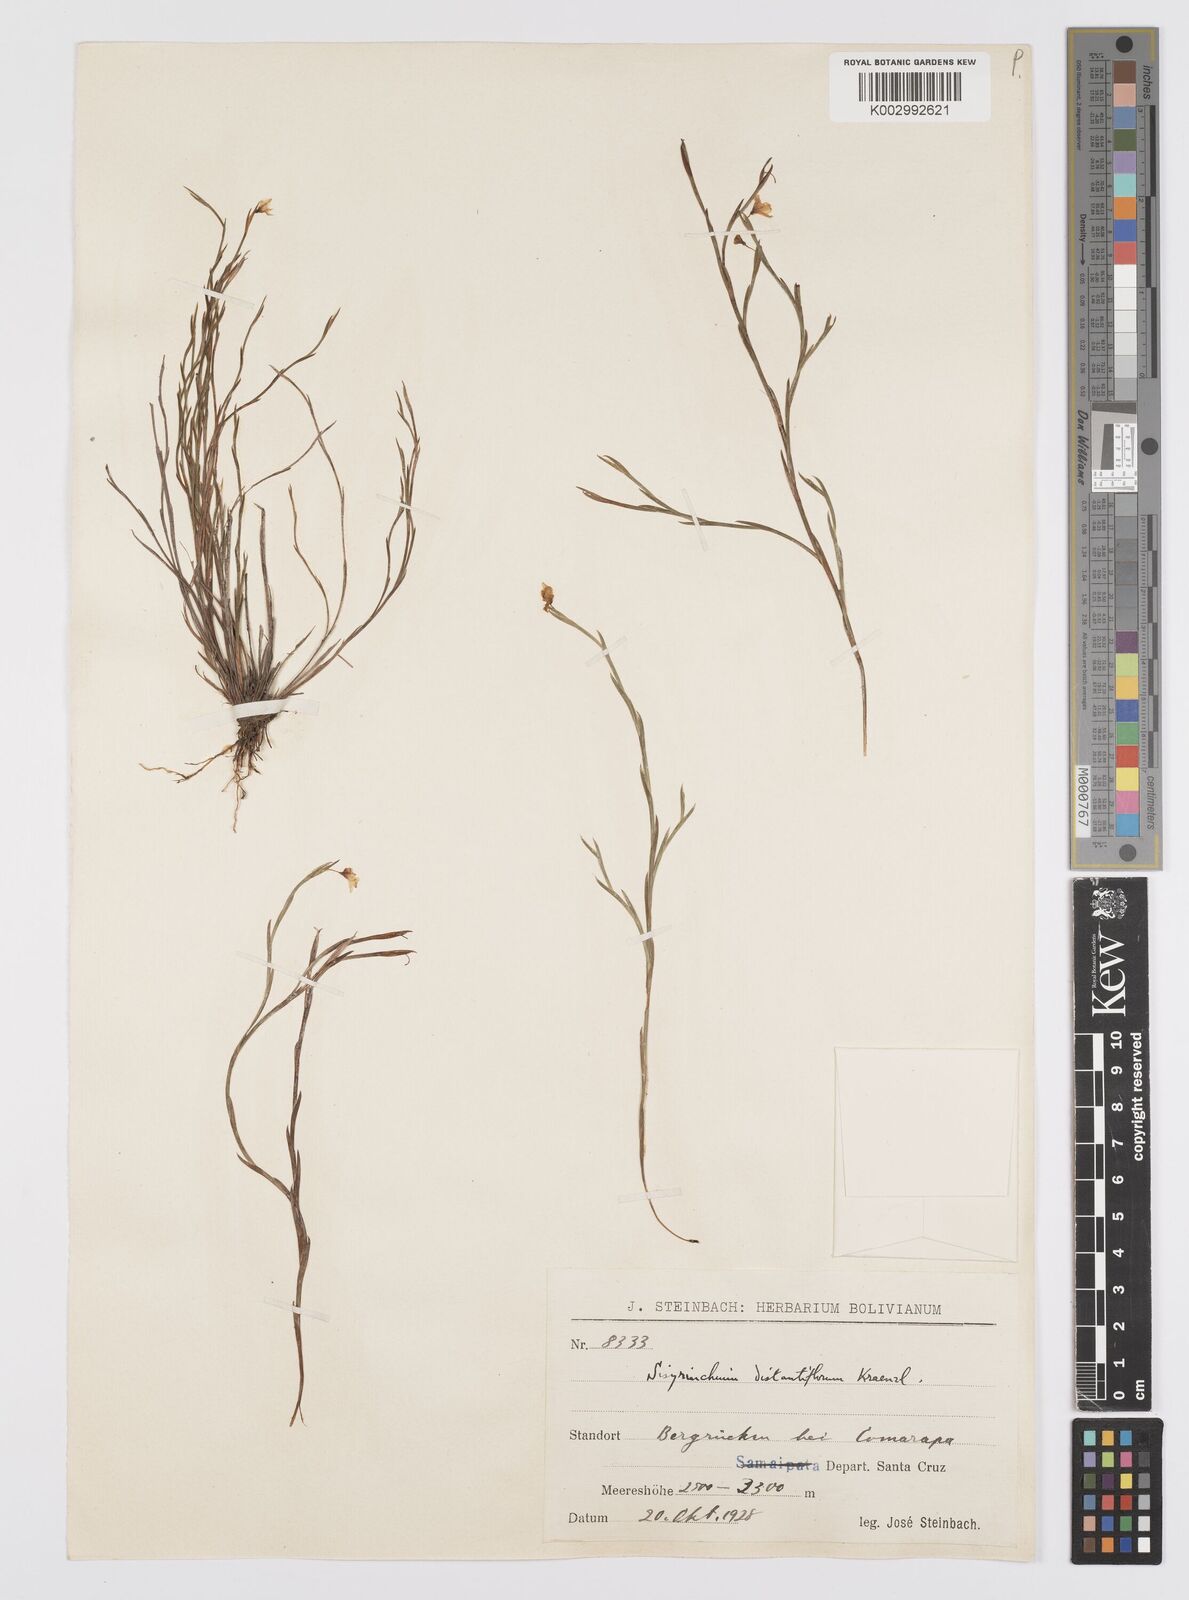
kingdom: Plantae
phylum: Tracheophyta
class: Liliopsida
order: Asparagales
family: Iridaceae
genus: Sisyrinchium
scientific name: Sisyrinchium vaginatum
